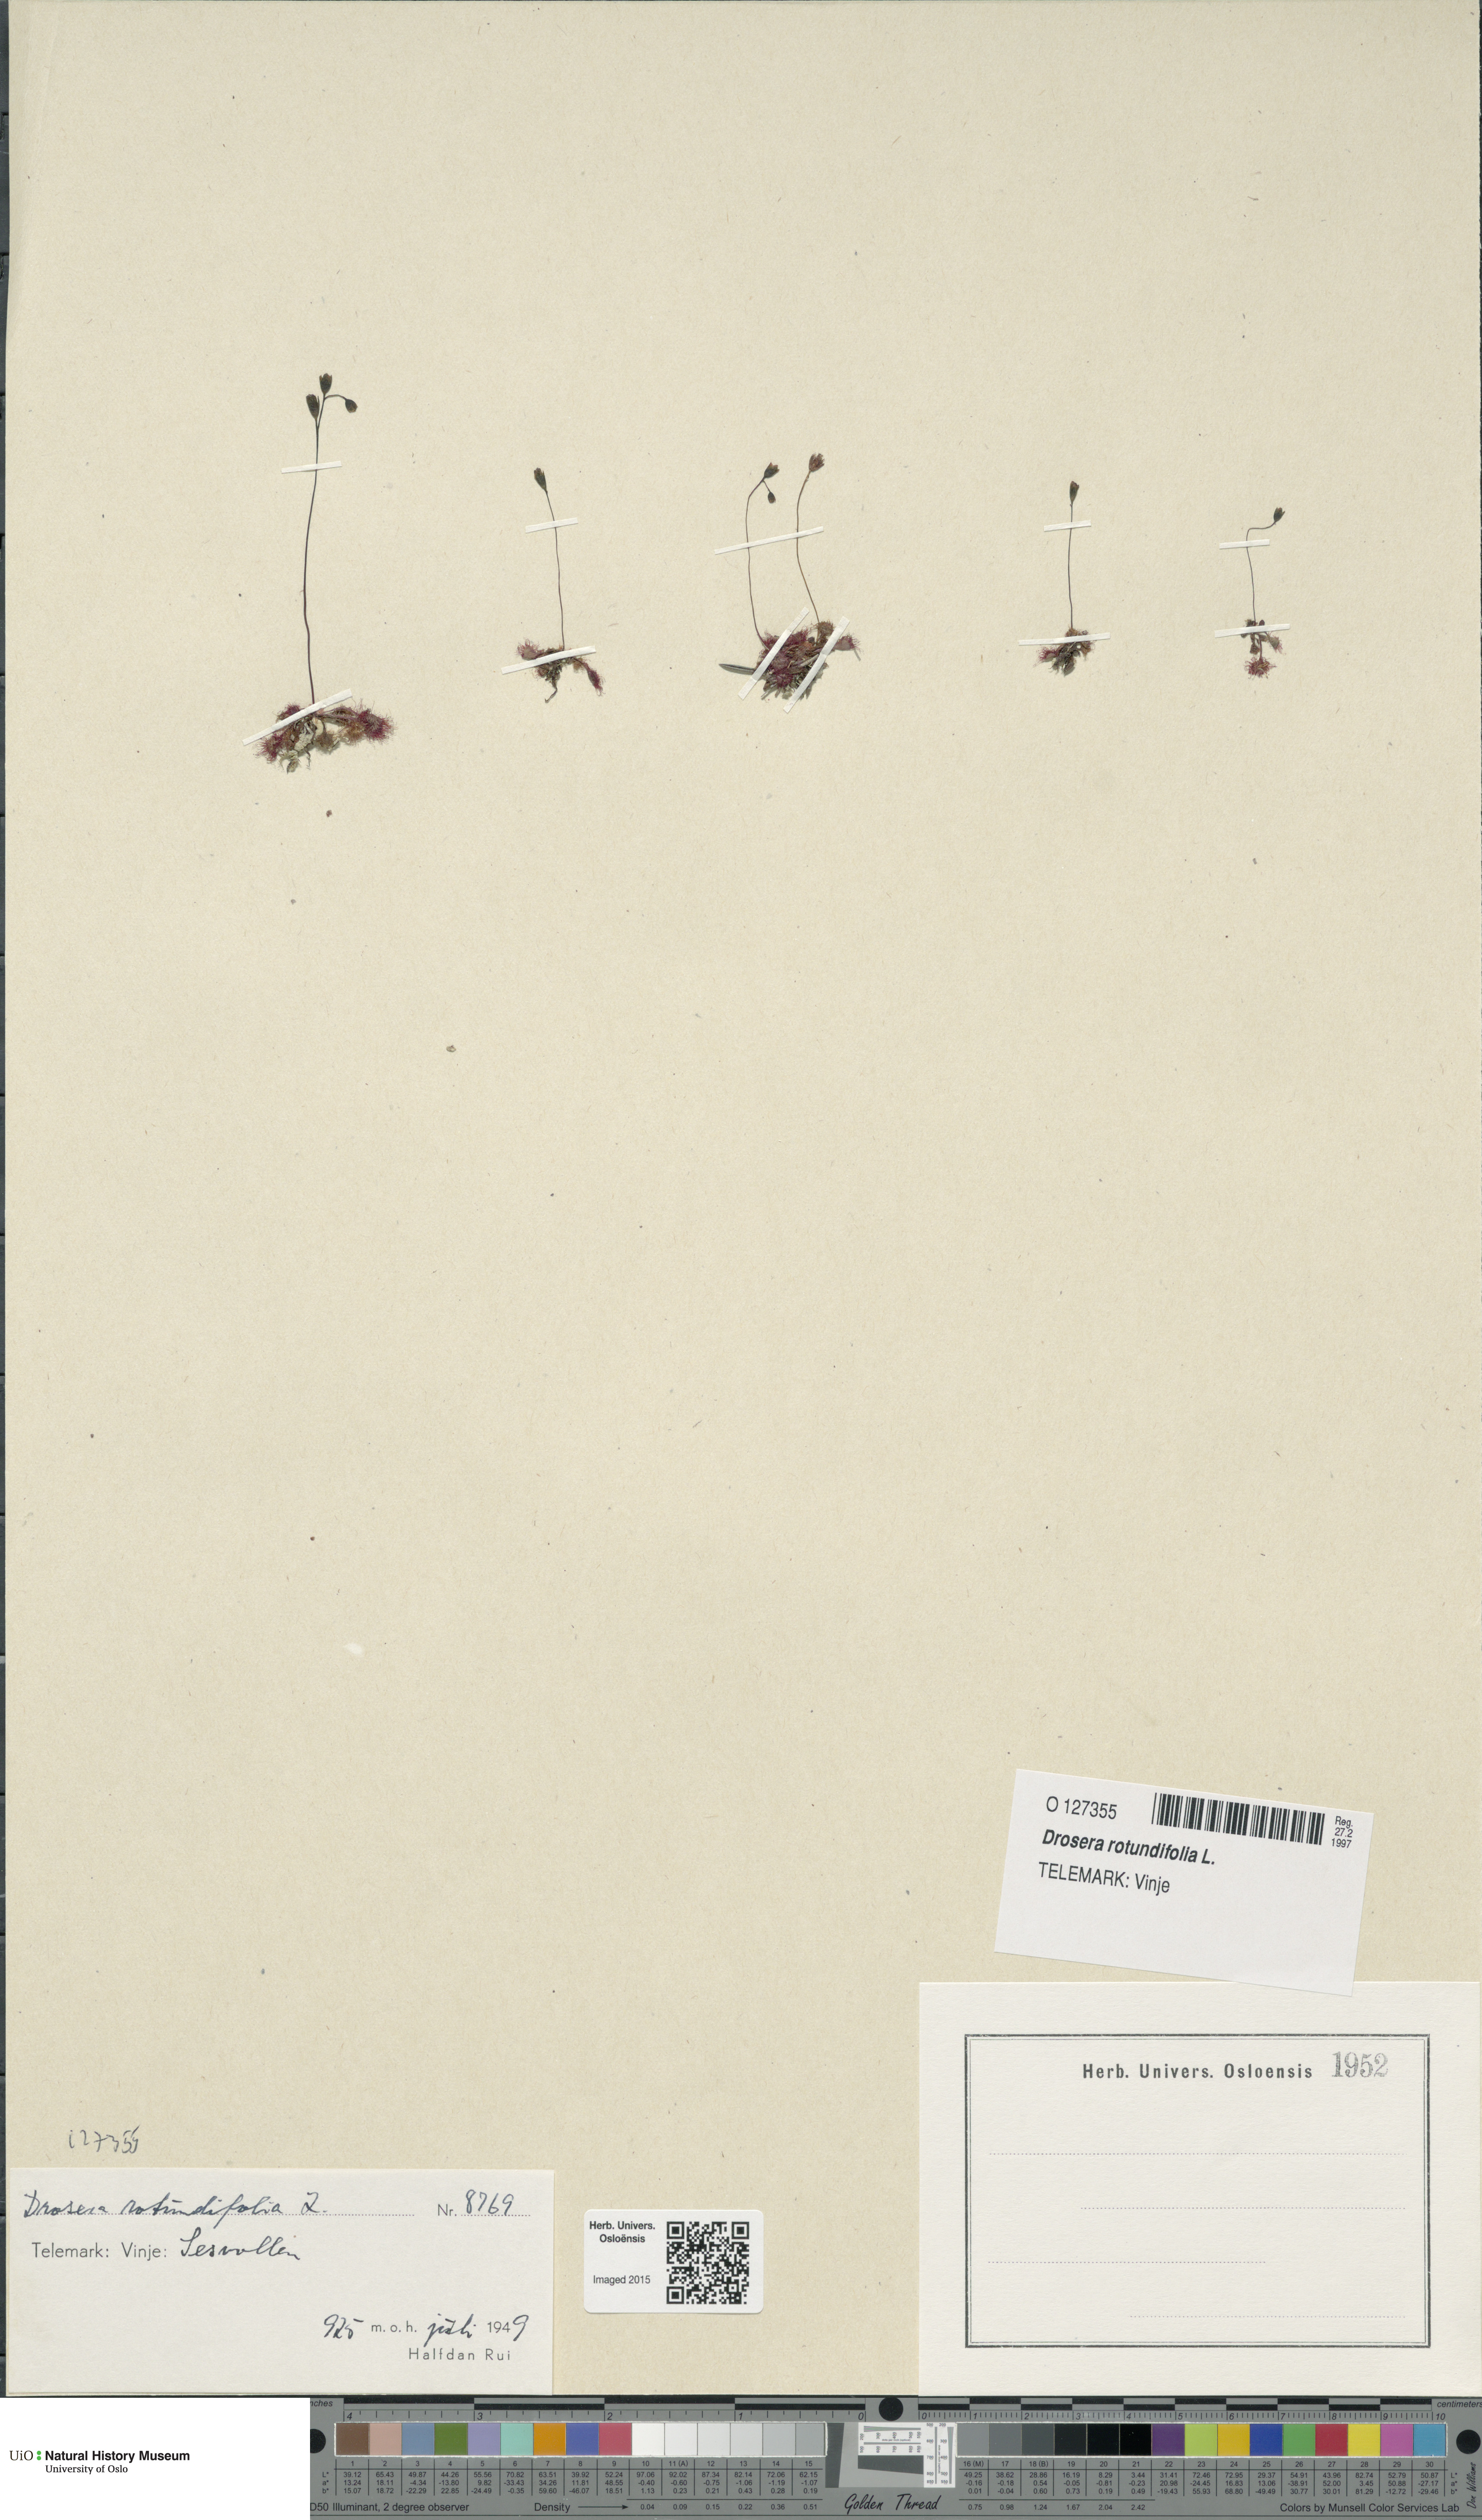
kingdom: Plantae
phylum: Tracheophyta
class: Magnoliopsida
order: Caryophyllales
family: Droseraceae
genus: Drosera
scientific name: Drosera rotundifolia
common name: Round-leaved sundew
